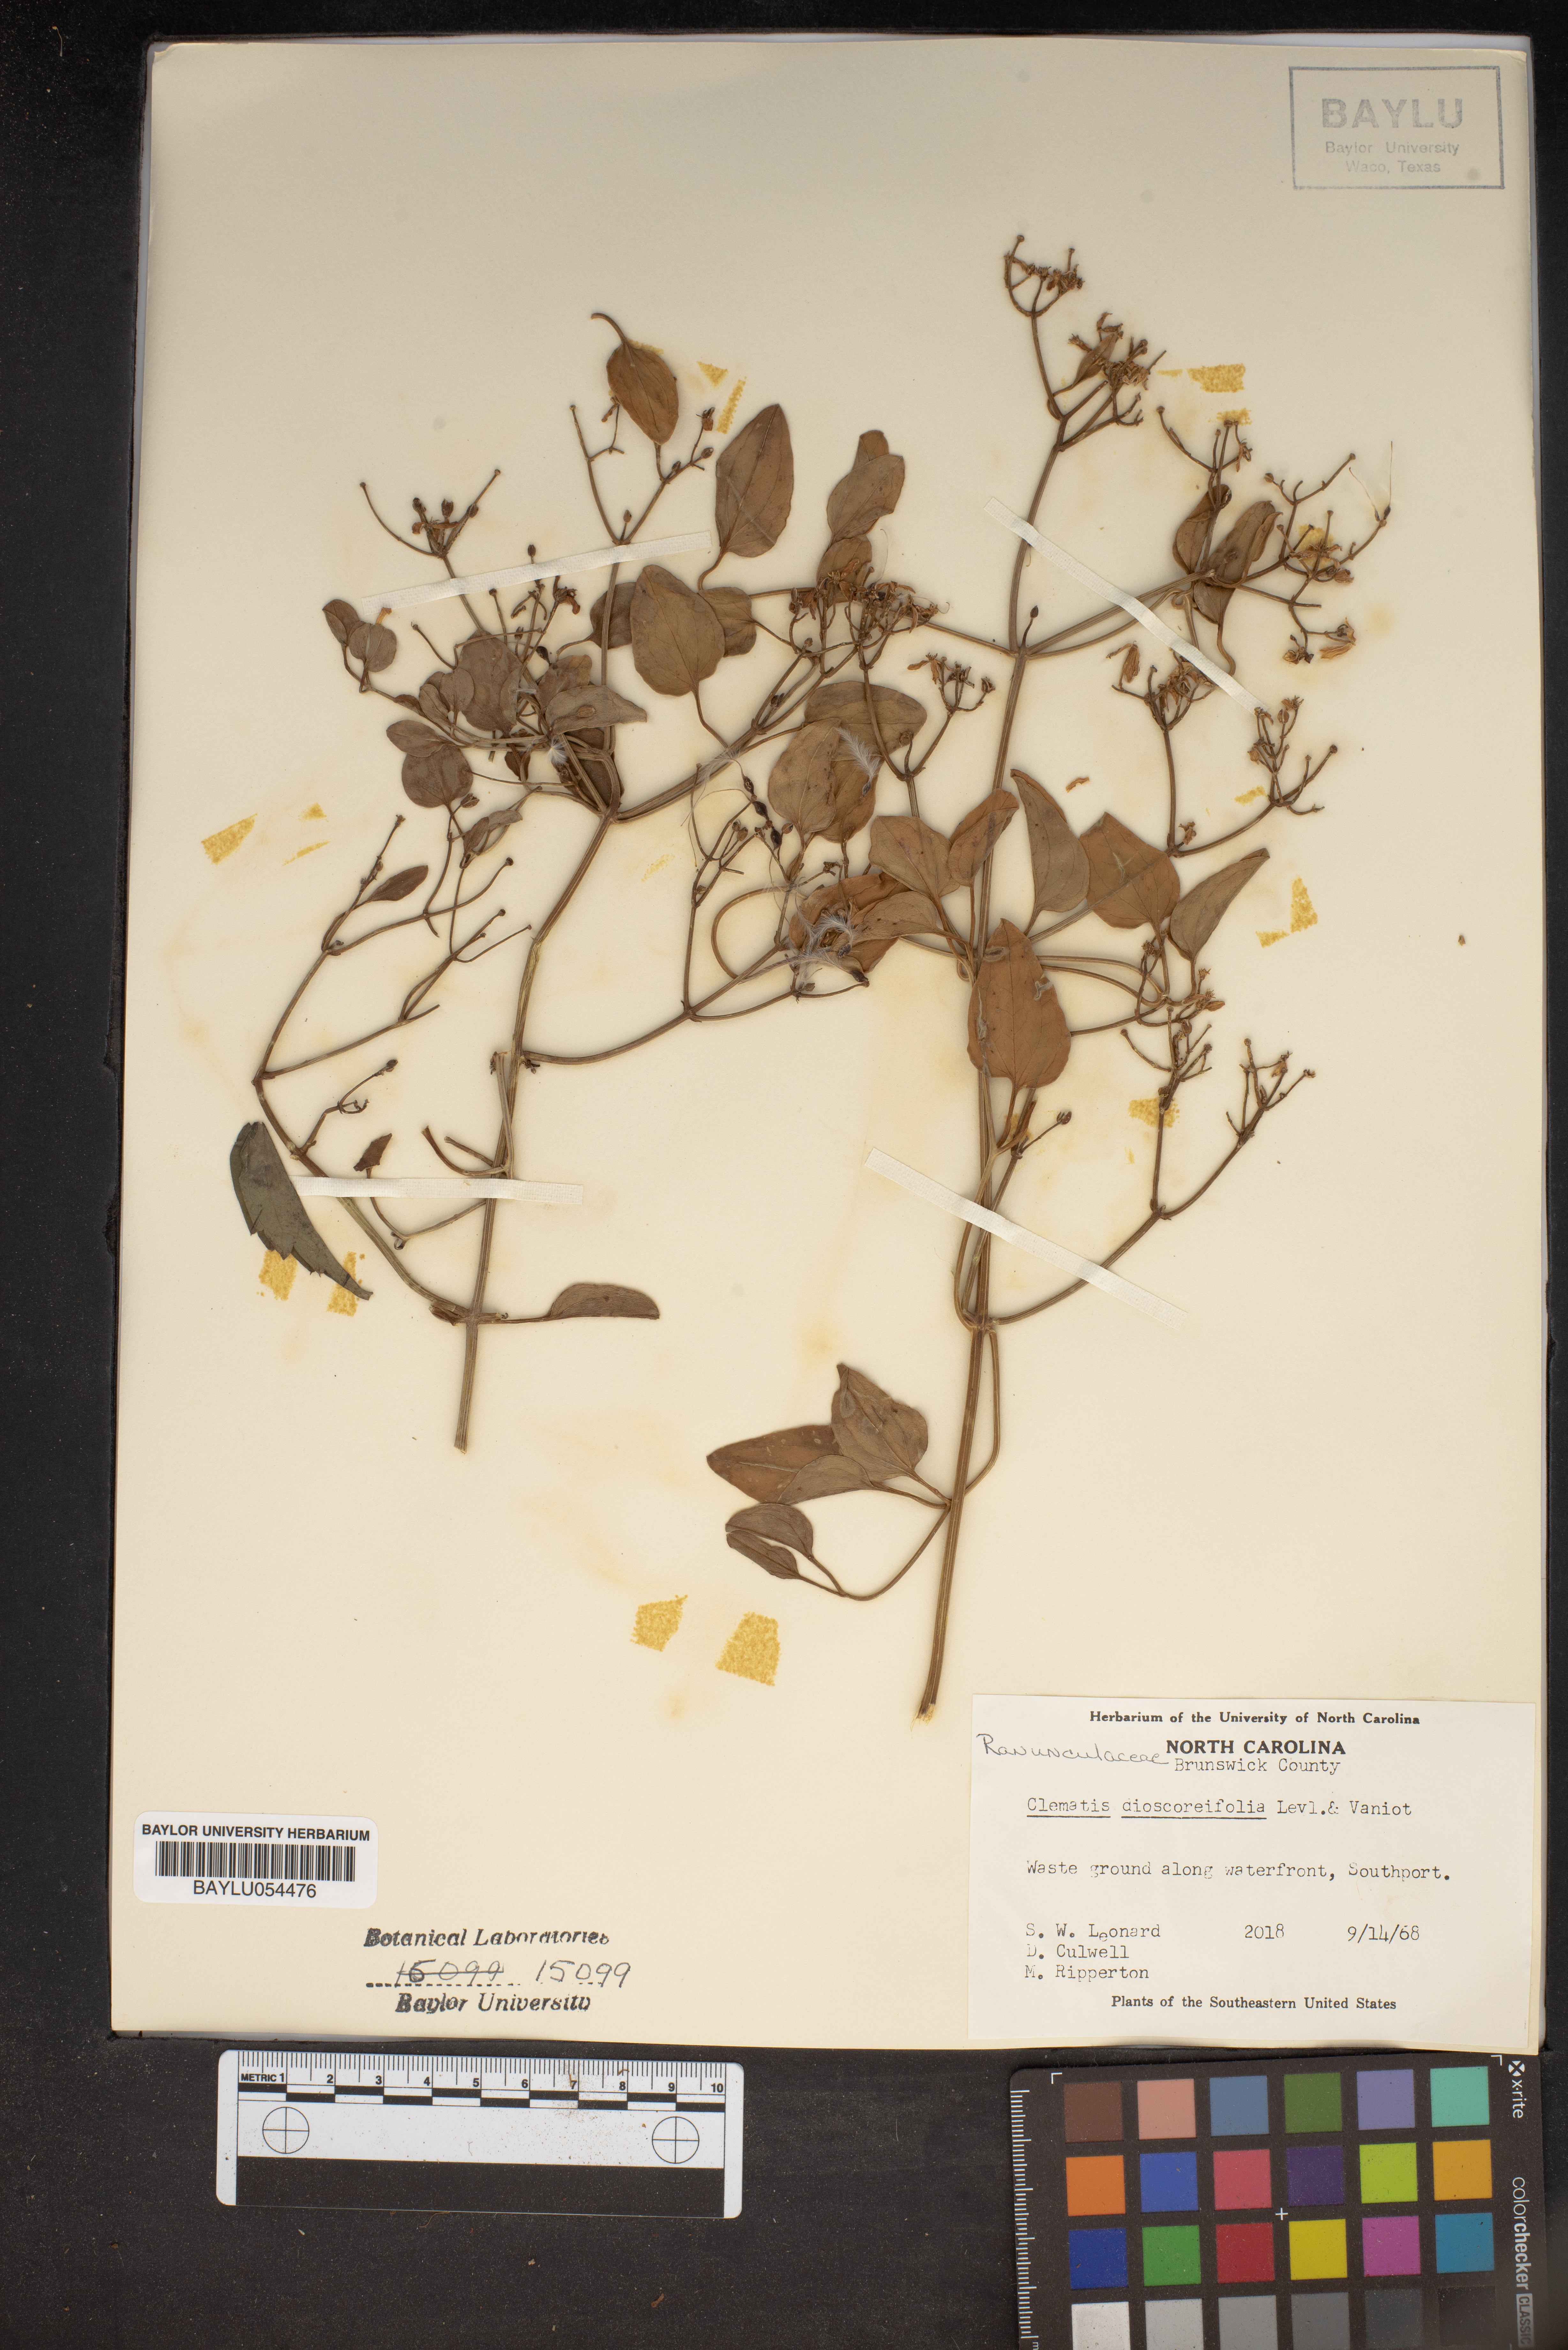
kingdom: Plantae
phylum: Tracheophyta
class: Magnoliopsida
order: Ranunculales
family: Ranunculaceae
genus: Clematis
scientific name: Clematis
